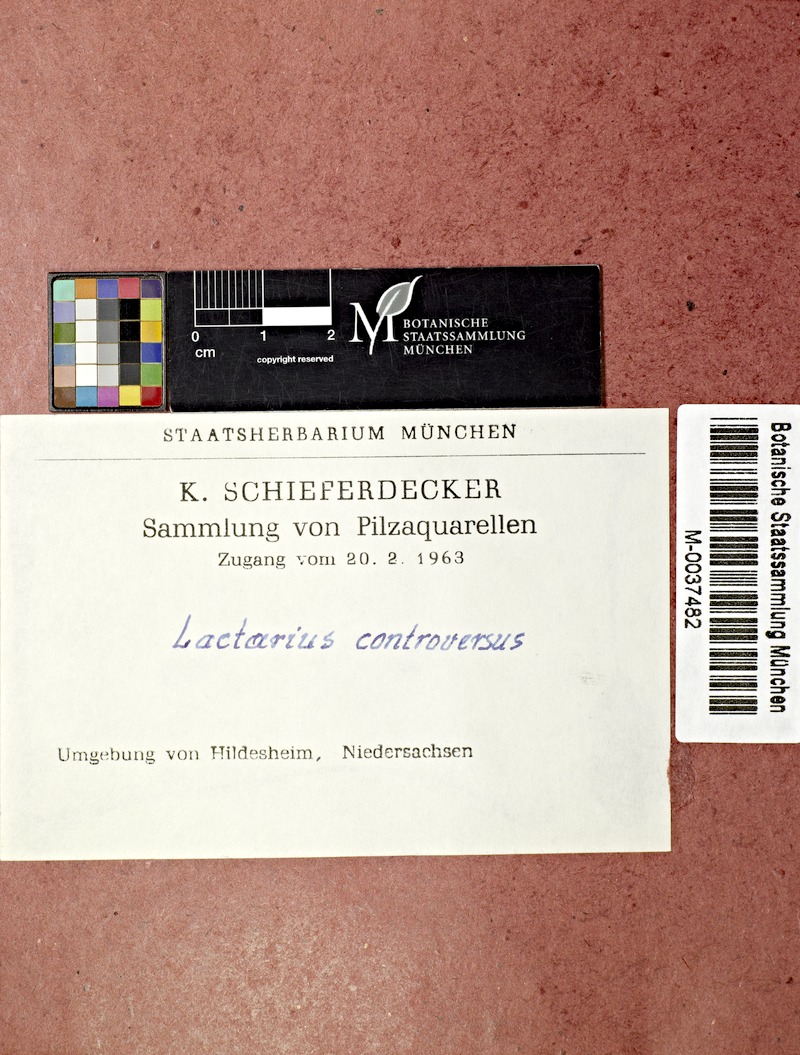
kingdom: Fungi
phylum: Basidiomycota
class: Agaricomycetes
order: Russulales
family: Russulaceae
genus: Lactarius
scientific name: Lactarius controversus
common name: Blushing milkcap
